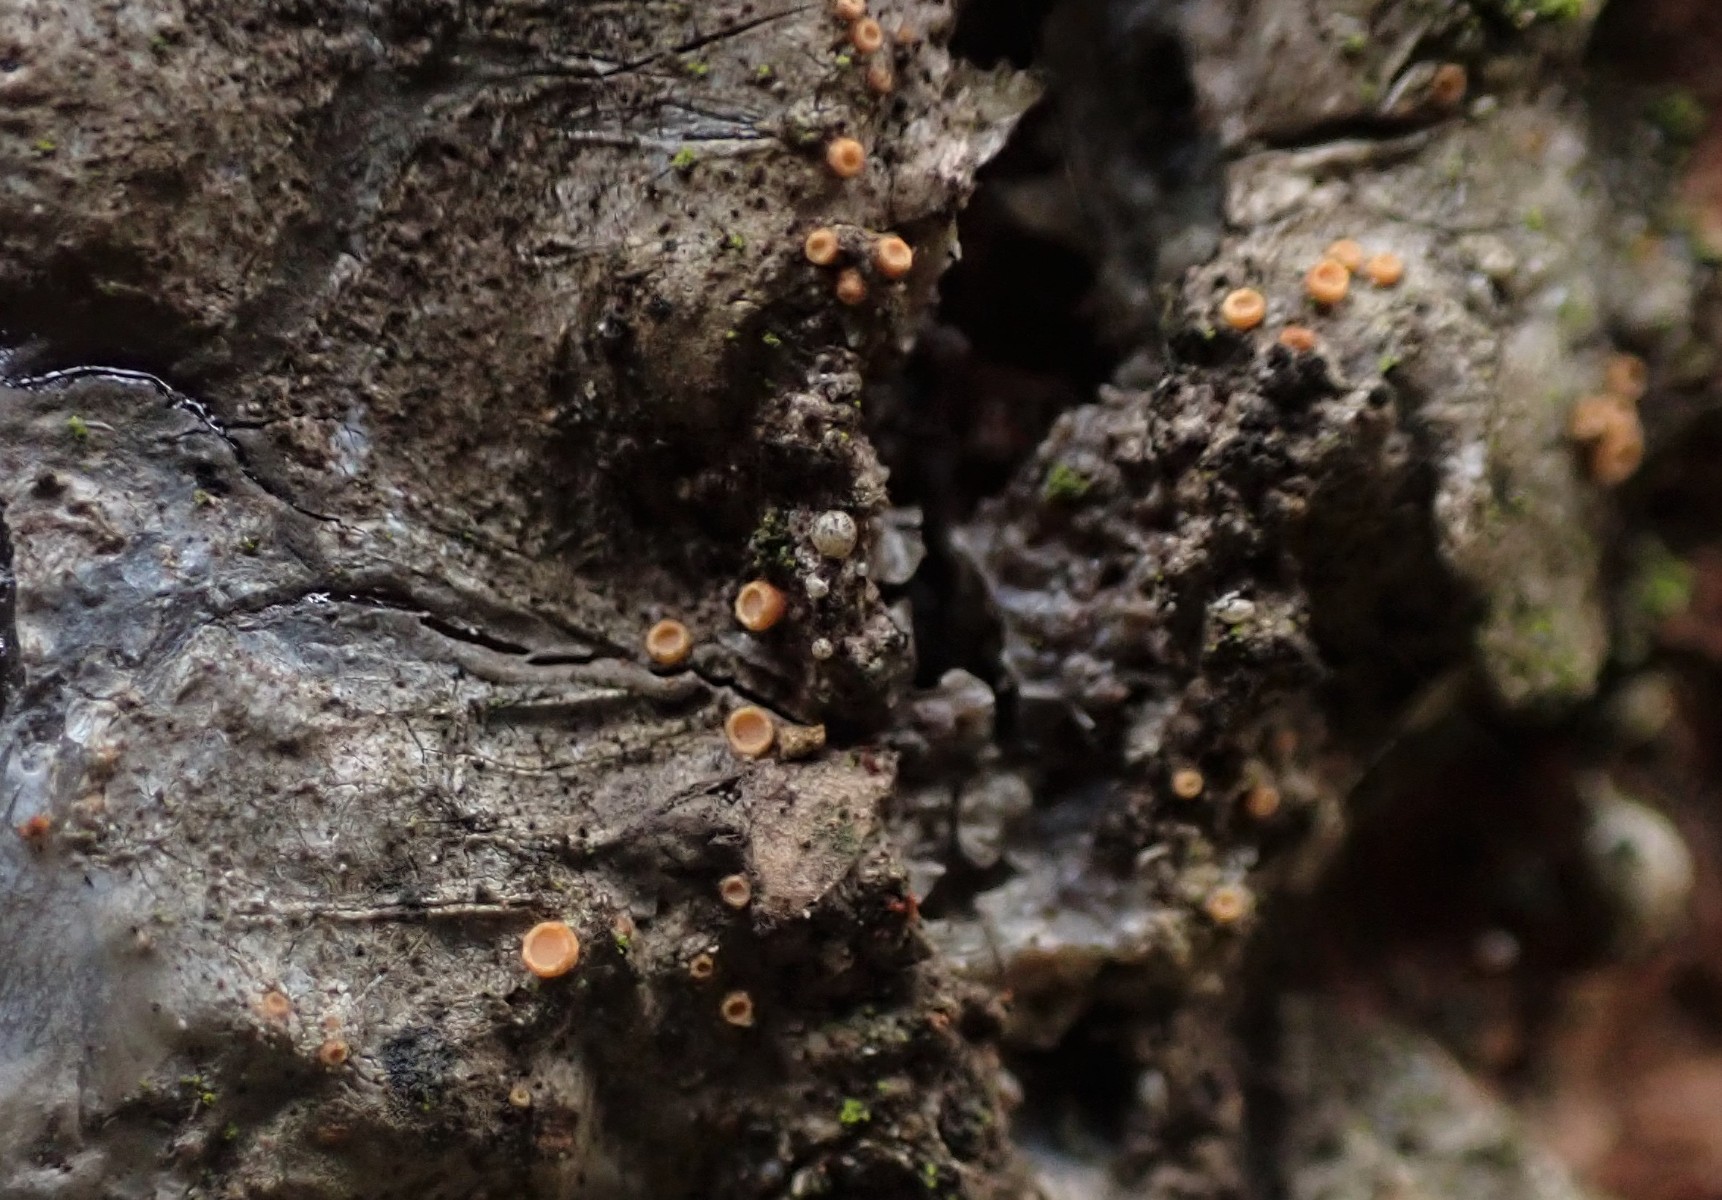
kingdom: Fungi
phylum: Ascomycota
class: Sareomycetes
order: Sareales
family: Sareaceae
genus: Sarea
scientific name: Sarea resinae
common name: orangegul harpiksskive
